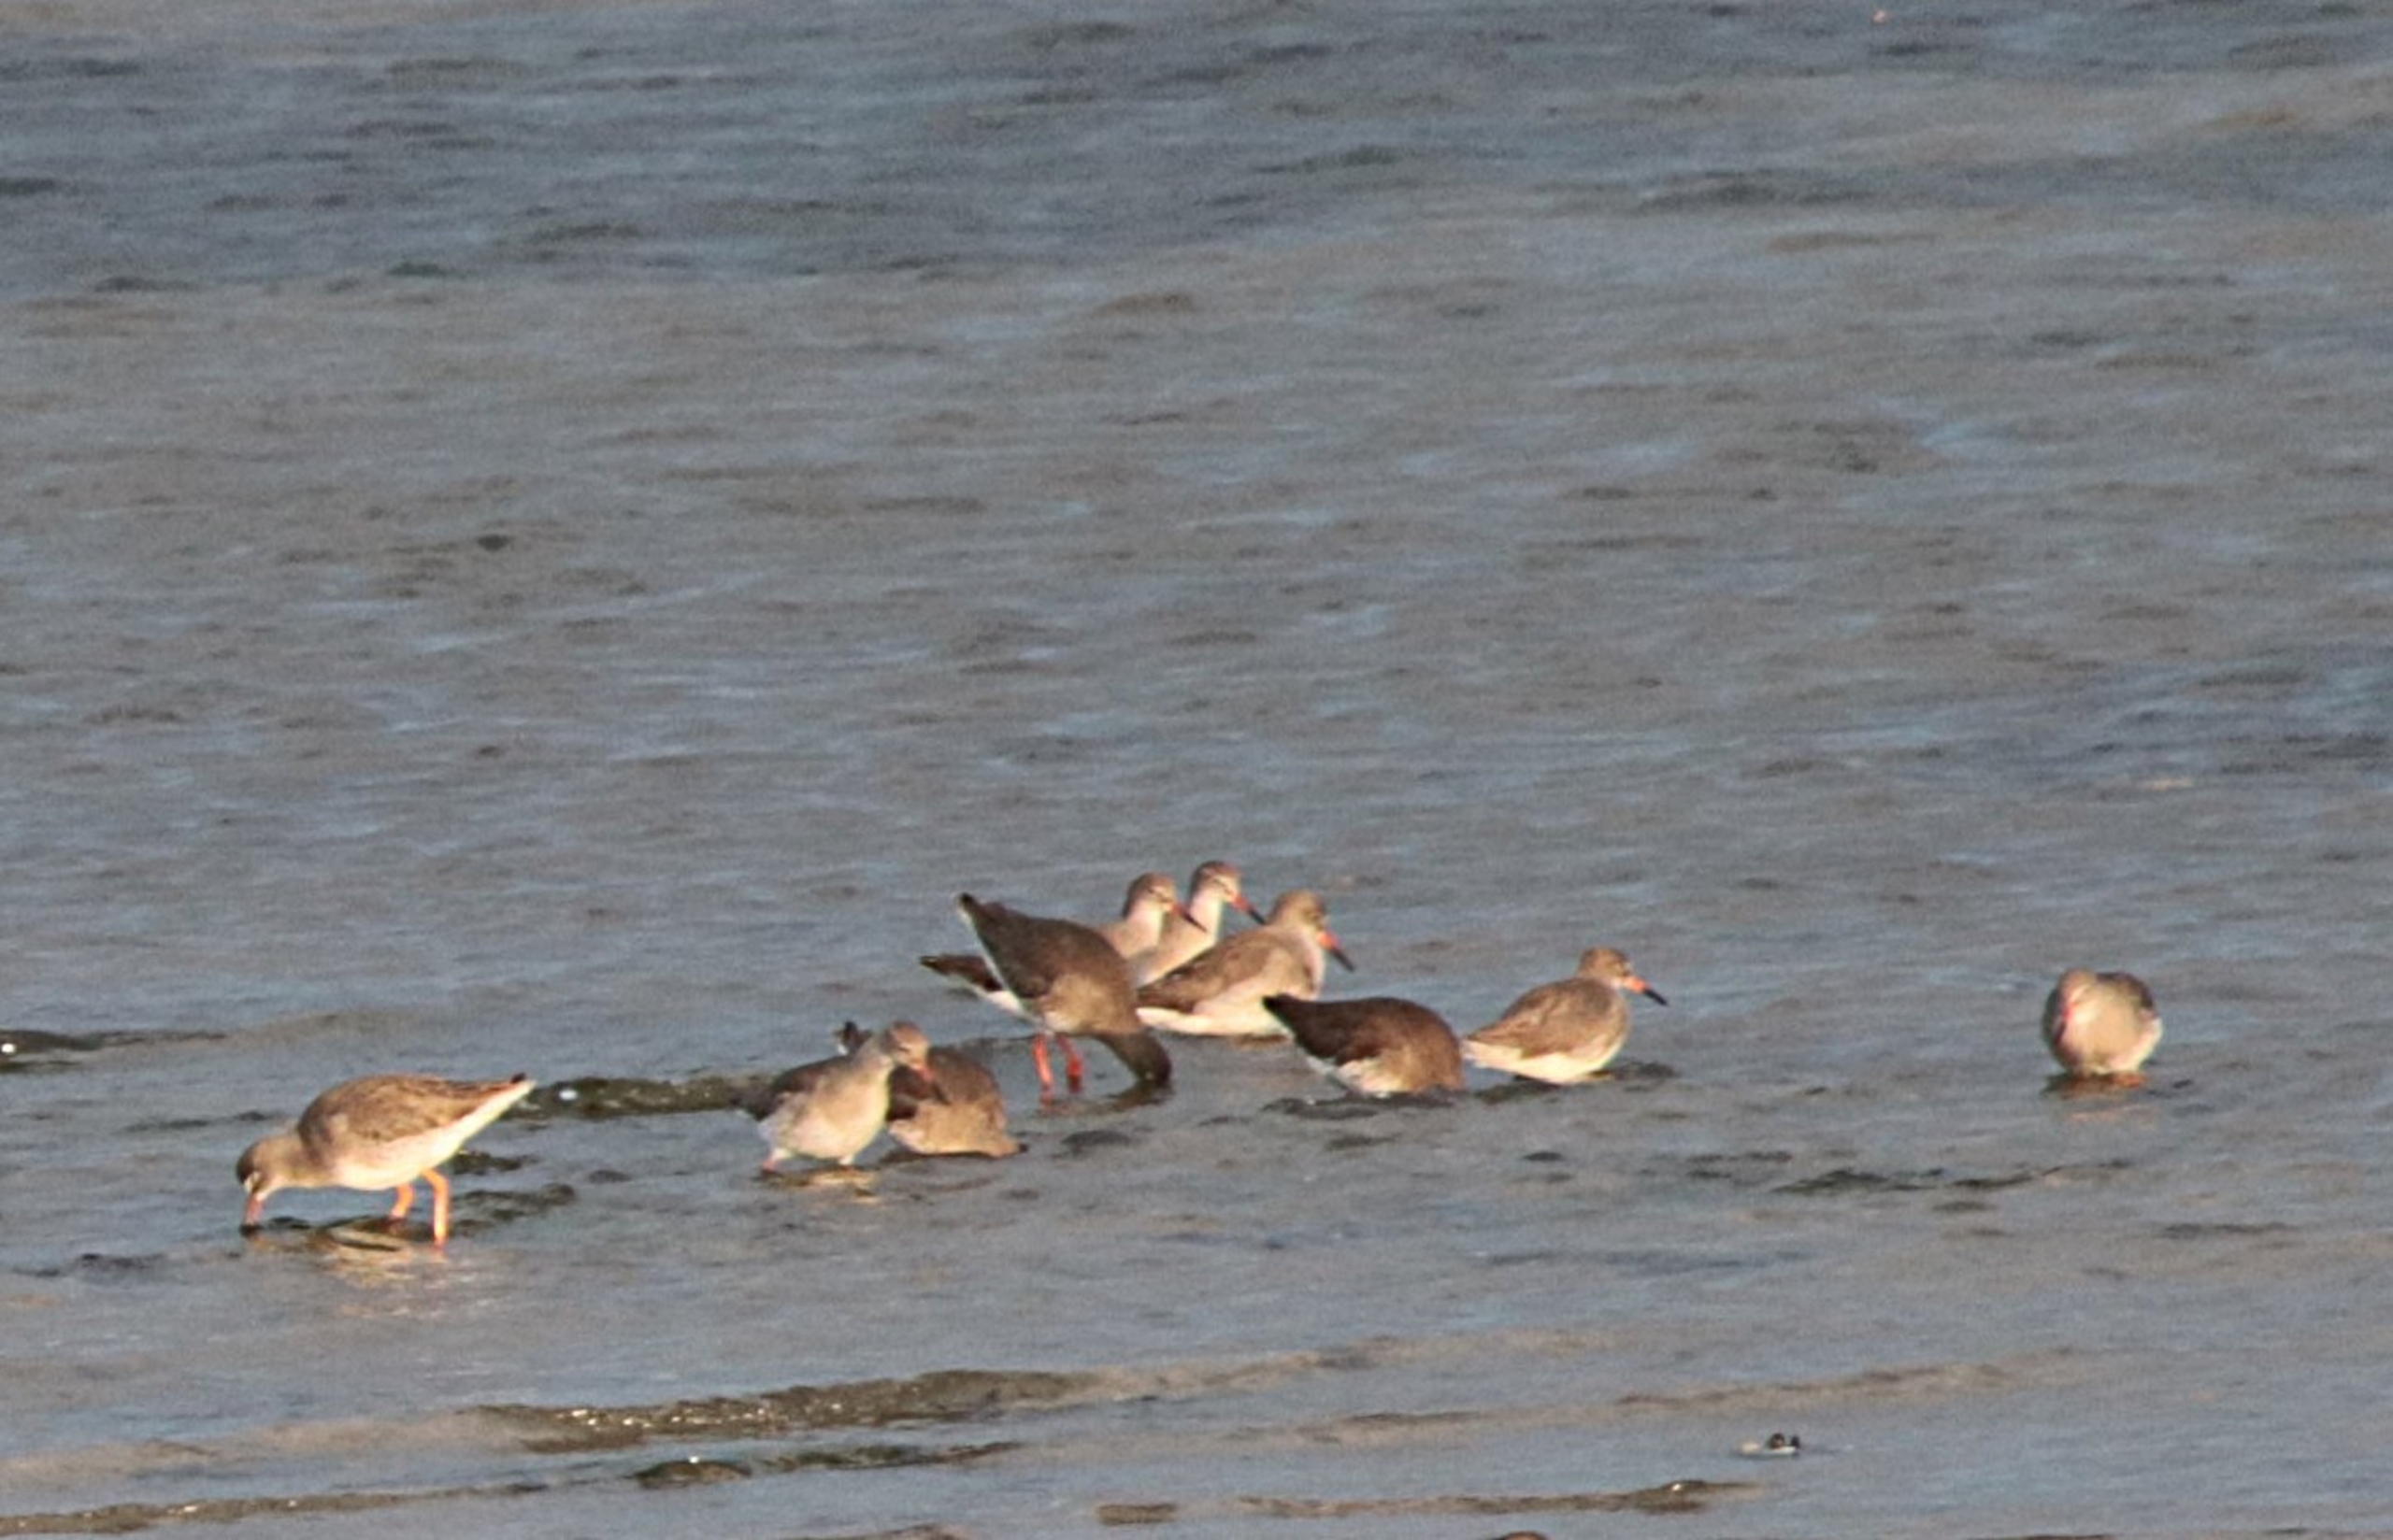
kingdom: Animalia
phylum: Chordata
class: Aves
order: Charadriiformes
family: Scolopacidae
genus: Tringa
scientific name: Tringa totanus
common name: Rødben
